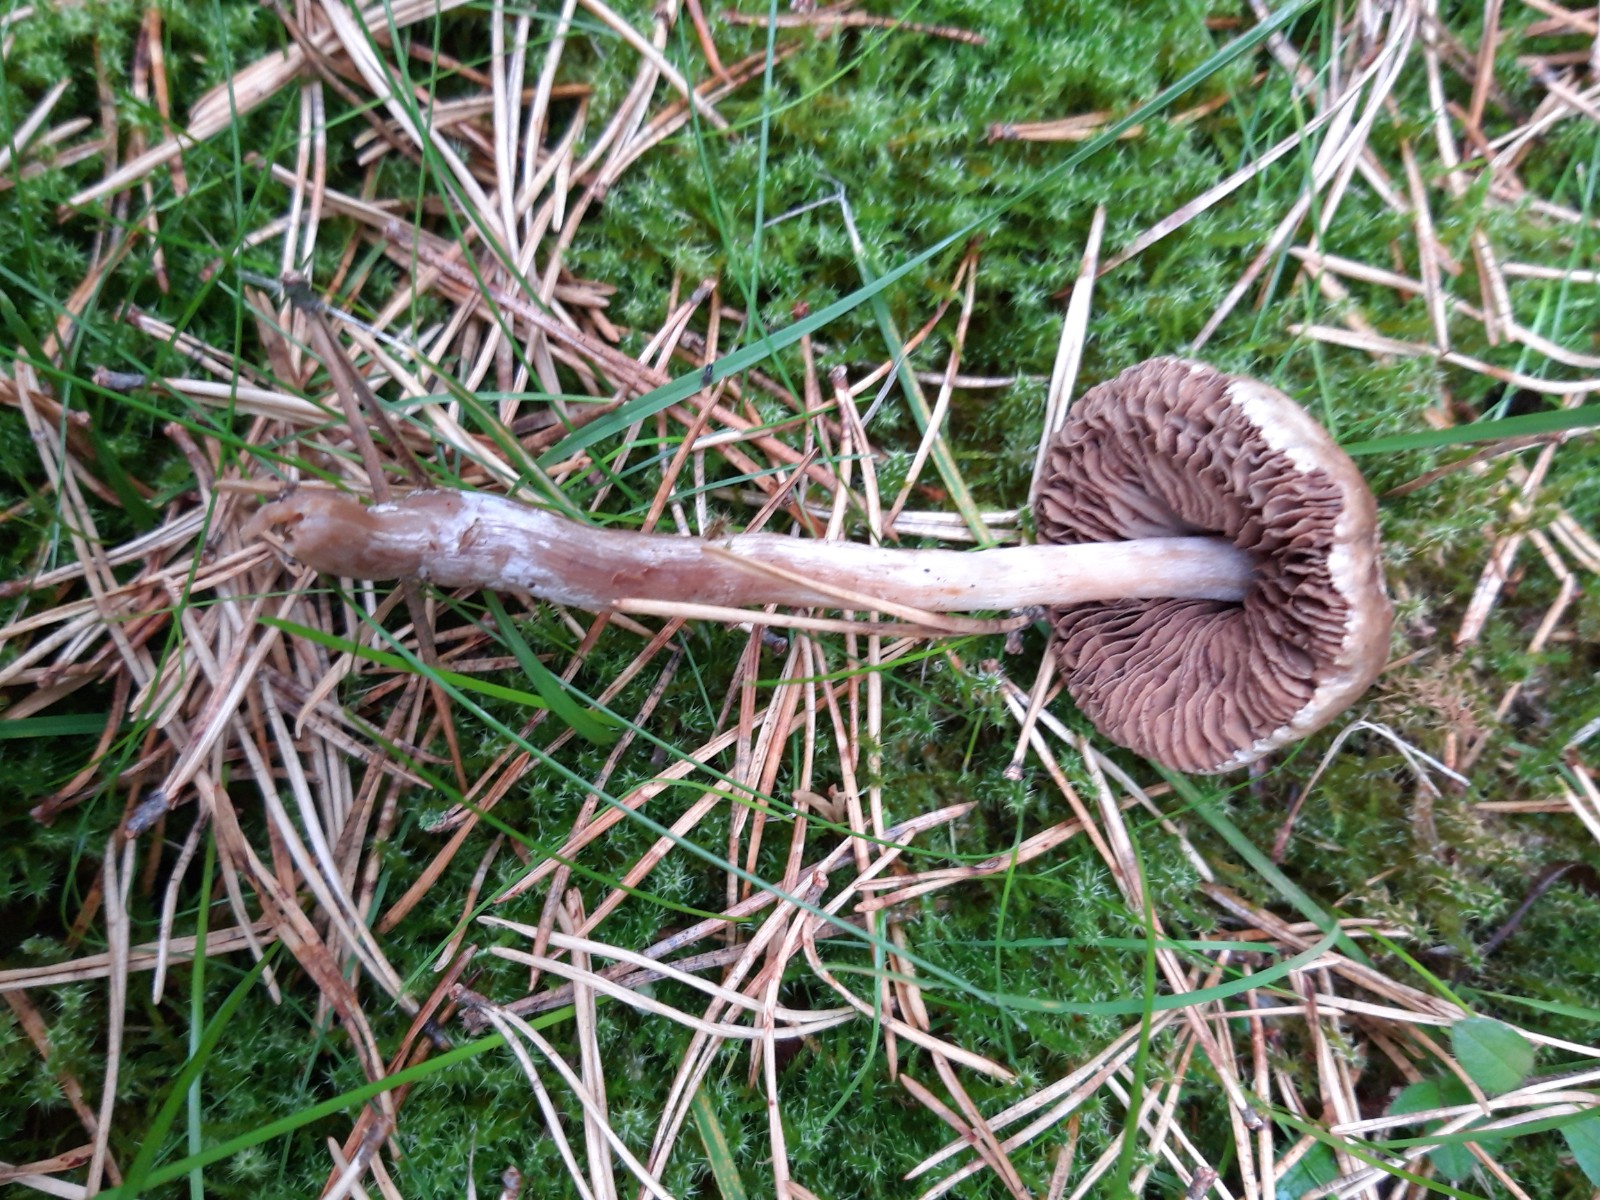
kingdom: Fungi
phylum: Basidiomycota
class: Agaricomycetes
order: Agaricales
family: Hymenogastraceae
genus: Hebeloma
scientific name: Hebeloma
